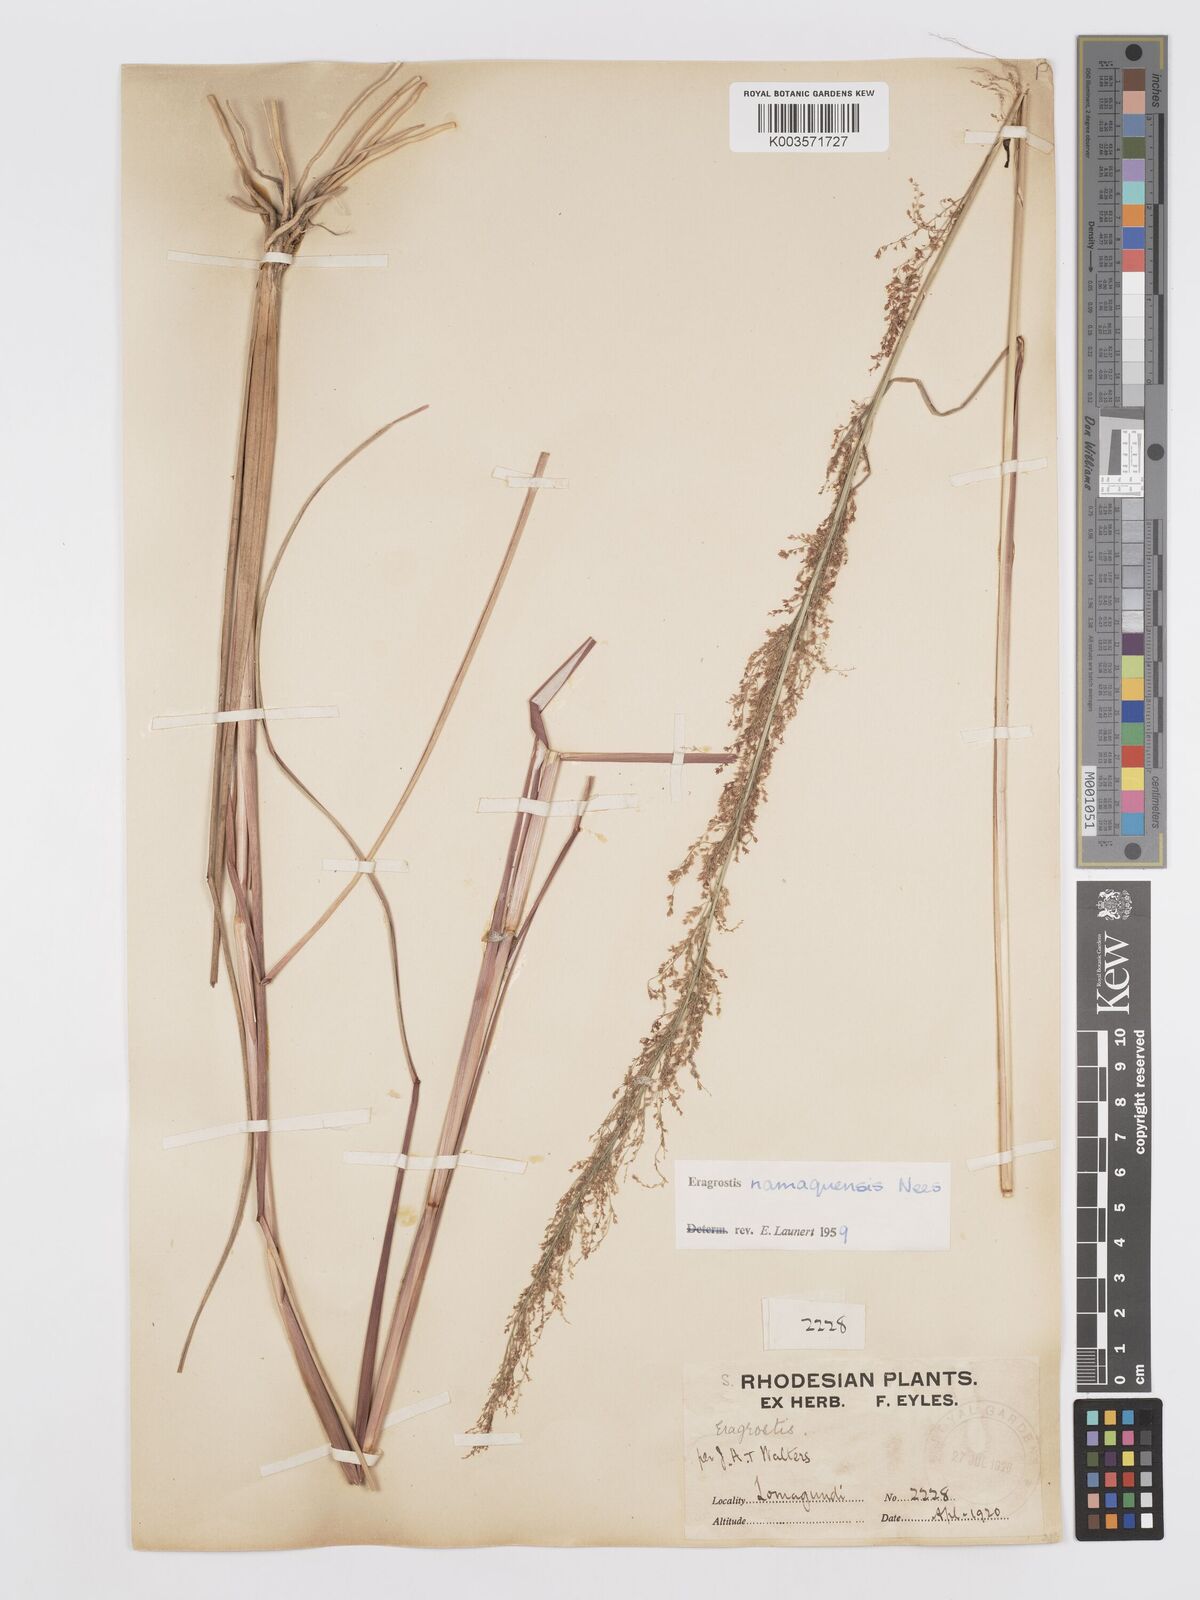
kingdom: Plantae
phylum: Tracheophyta
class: Liliopsida
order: Poales
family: Poaceae
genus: Eragrostis
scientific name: Eragrostis japonica
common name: Pond lovegrass
